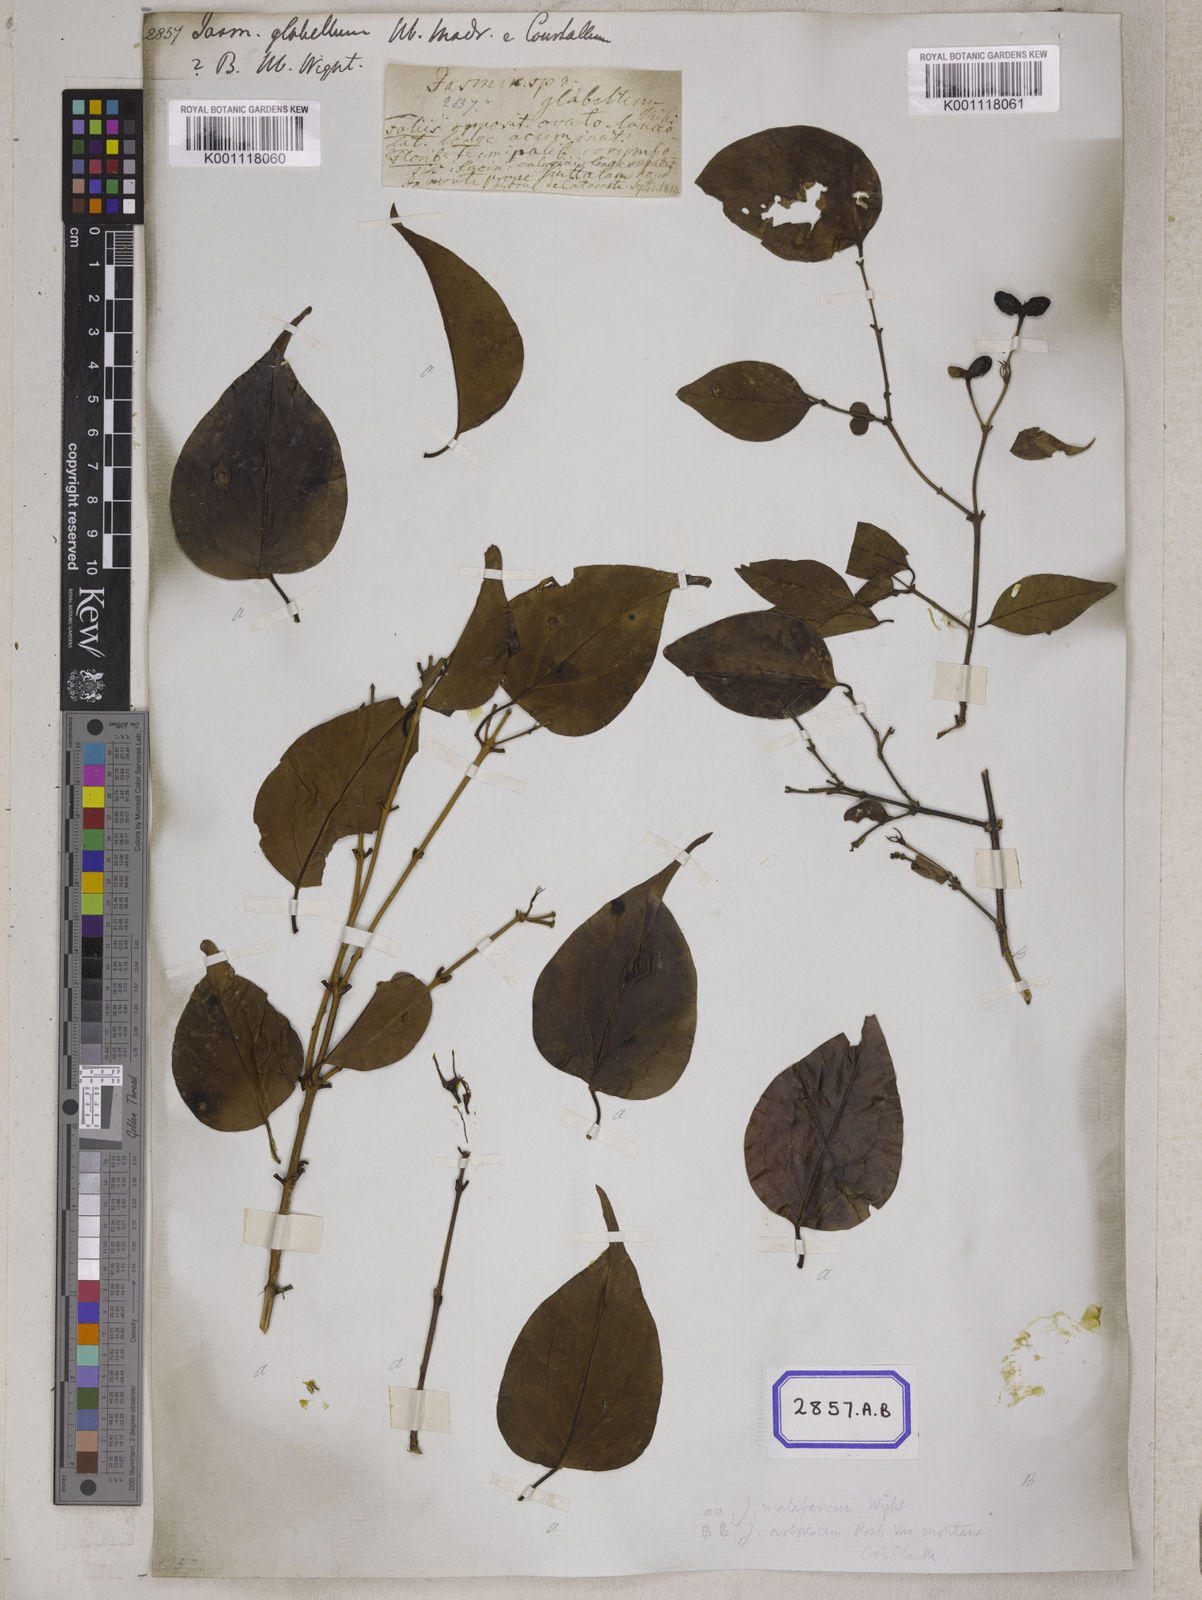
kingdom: Plantae
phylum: Tracheophyta
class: Magnoliopsida
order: Lamiales
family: Oleaceae
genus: Jasminum
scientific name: Jasminum cordifolium
